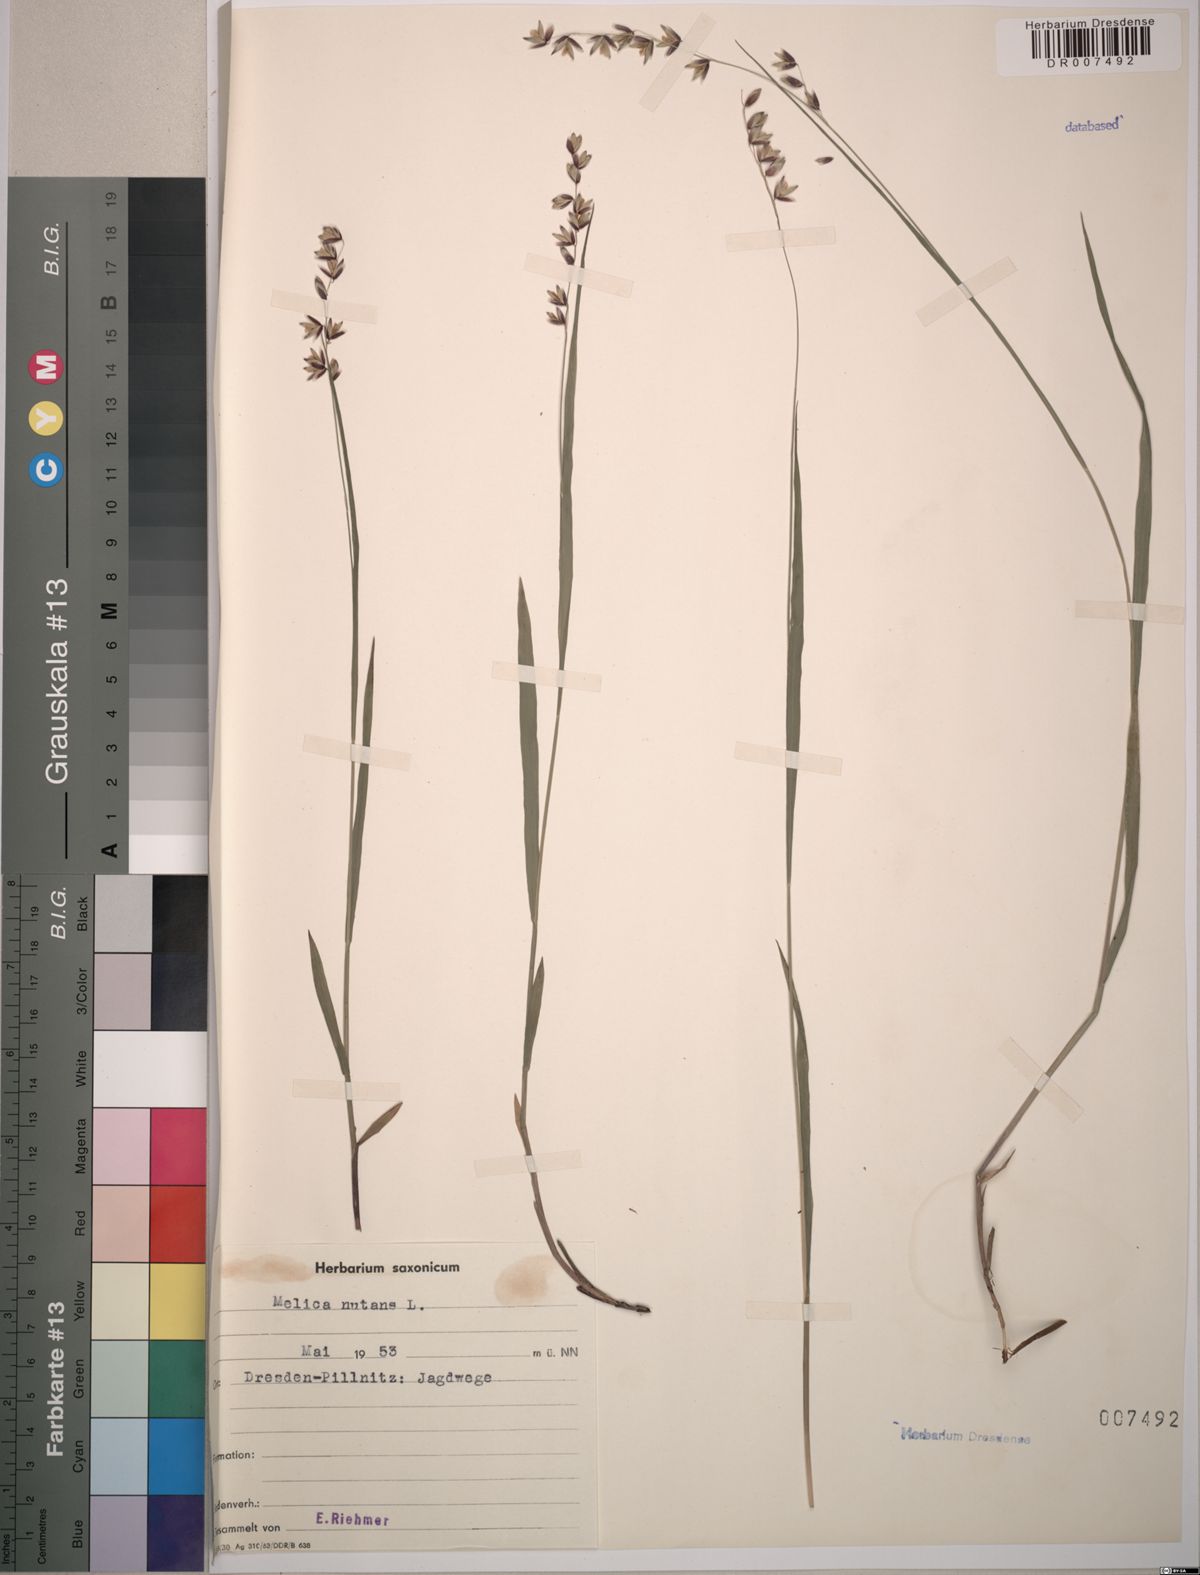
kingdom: Plantae
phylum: Tracheophyta
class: Liliopsida
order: Poales
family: Poaceae
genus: Melica
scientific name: Melica nutans
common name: Mountain melick
